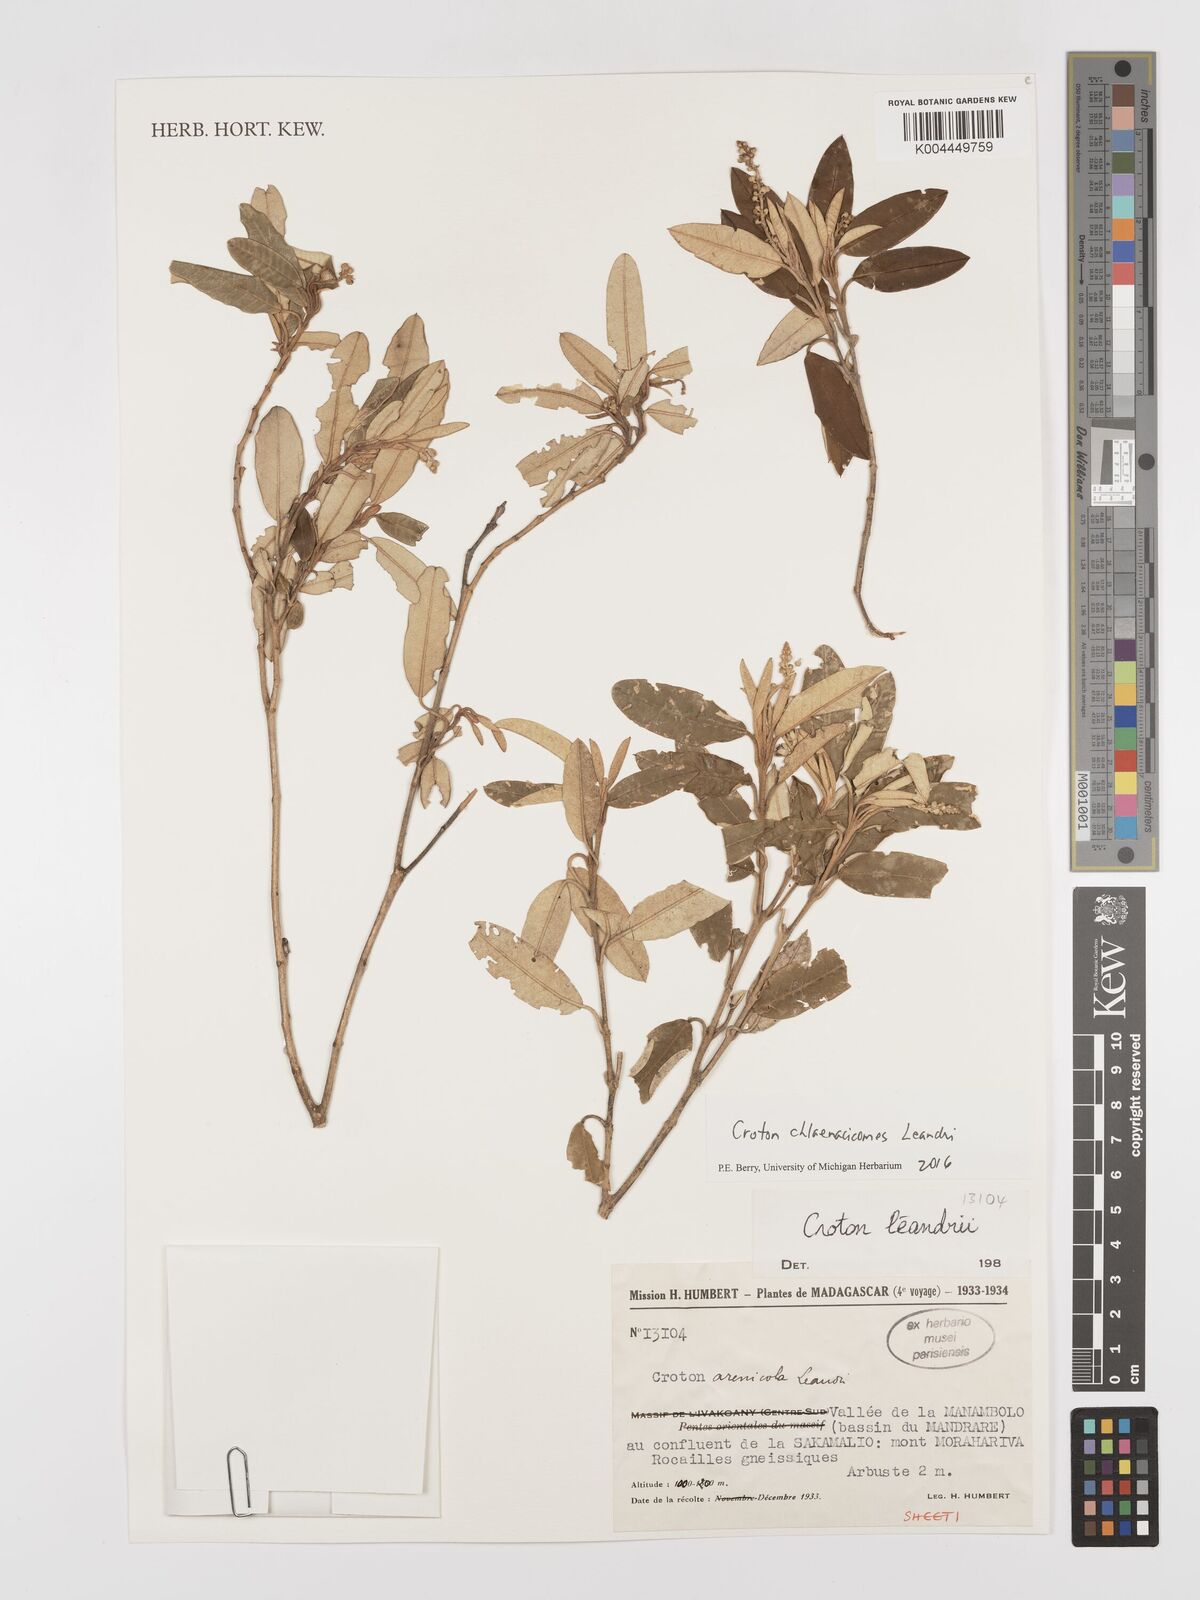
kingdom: Plantae
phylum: Tracheophyta
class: Magnoliopsida
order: Malpighiales
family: Euphorbiaceae
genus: Croton
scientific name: Croton chlaenacicomes
